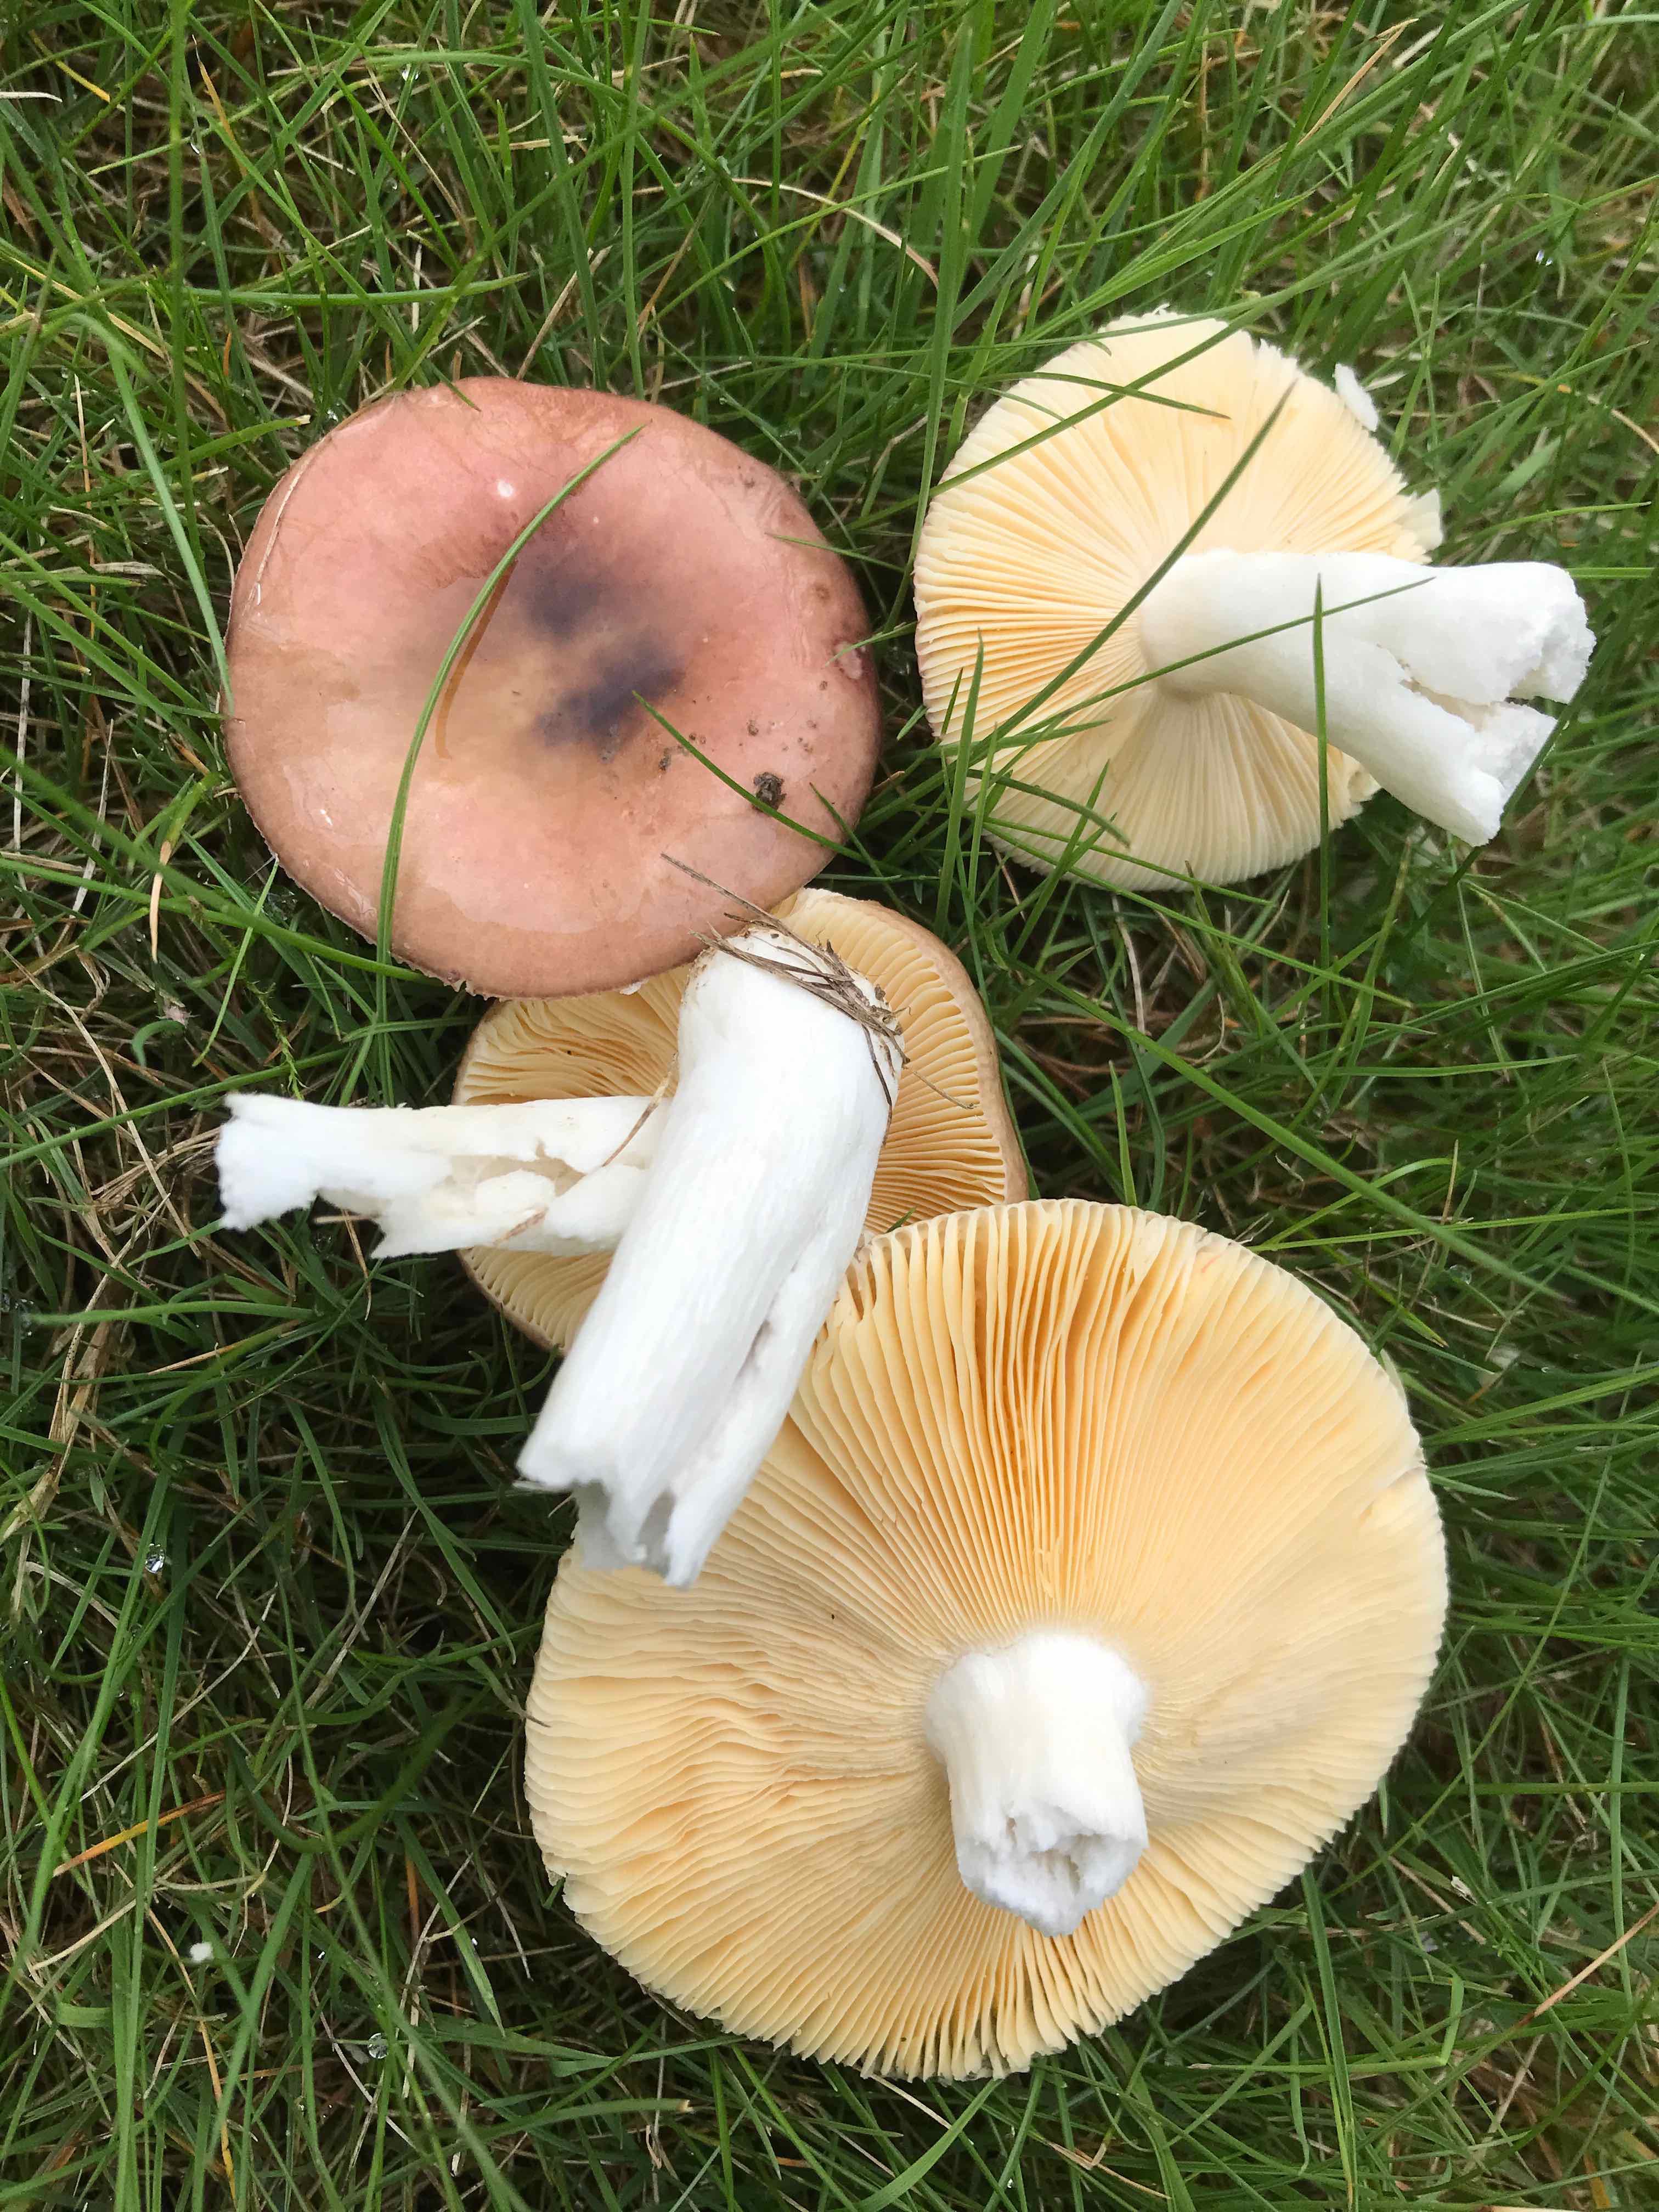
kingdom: Fungi
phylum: Basidiomycota
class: Agaricomycetes
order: Russulales
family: Russulaceae
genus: Russula
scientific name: Russula cessans
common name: fyrre-skørhat
